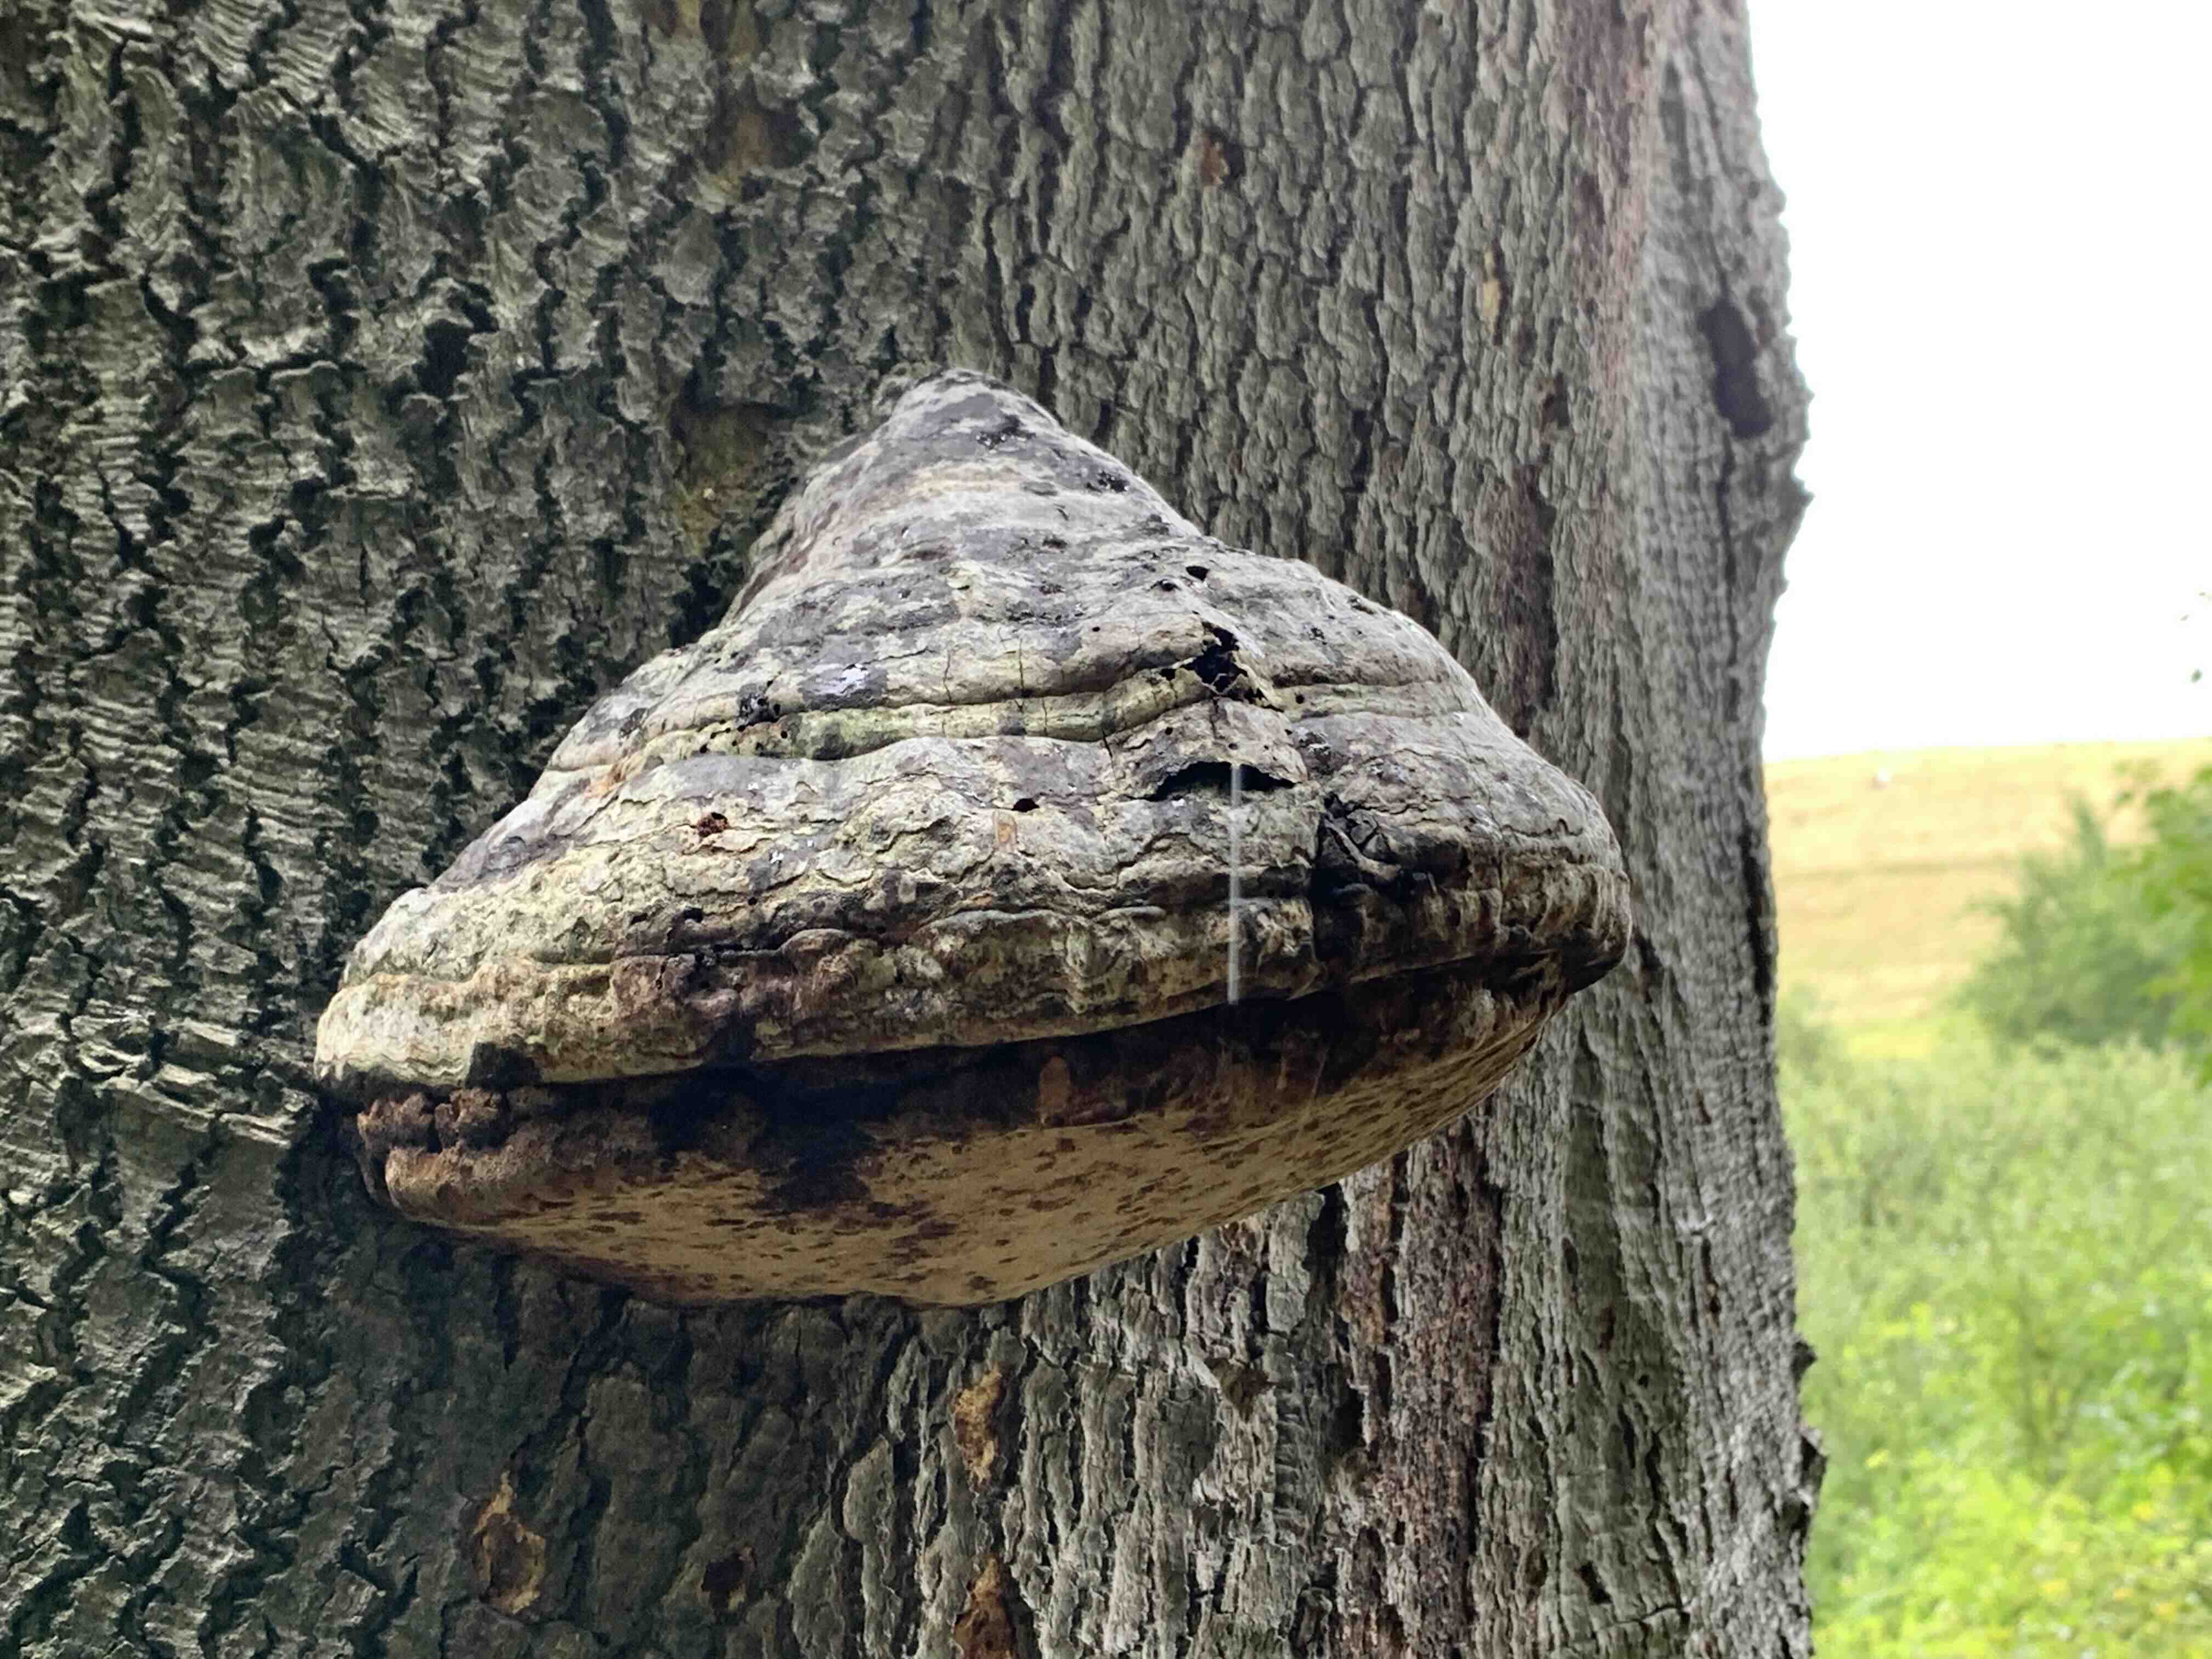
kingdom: Fungi
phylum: Basidiomycota
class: Agaricomycetes
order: Polyporales
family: Polyporaceae
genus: Fomes
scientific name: Fomes fomentarius
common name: tøndersvamp
